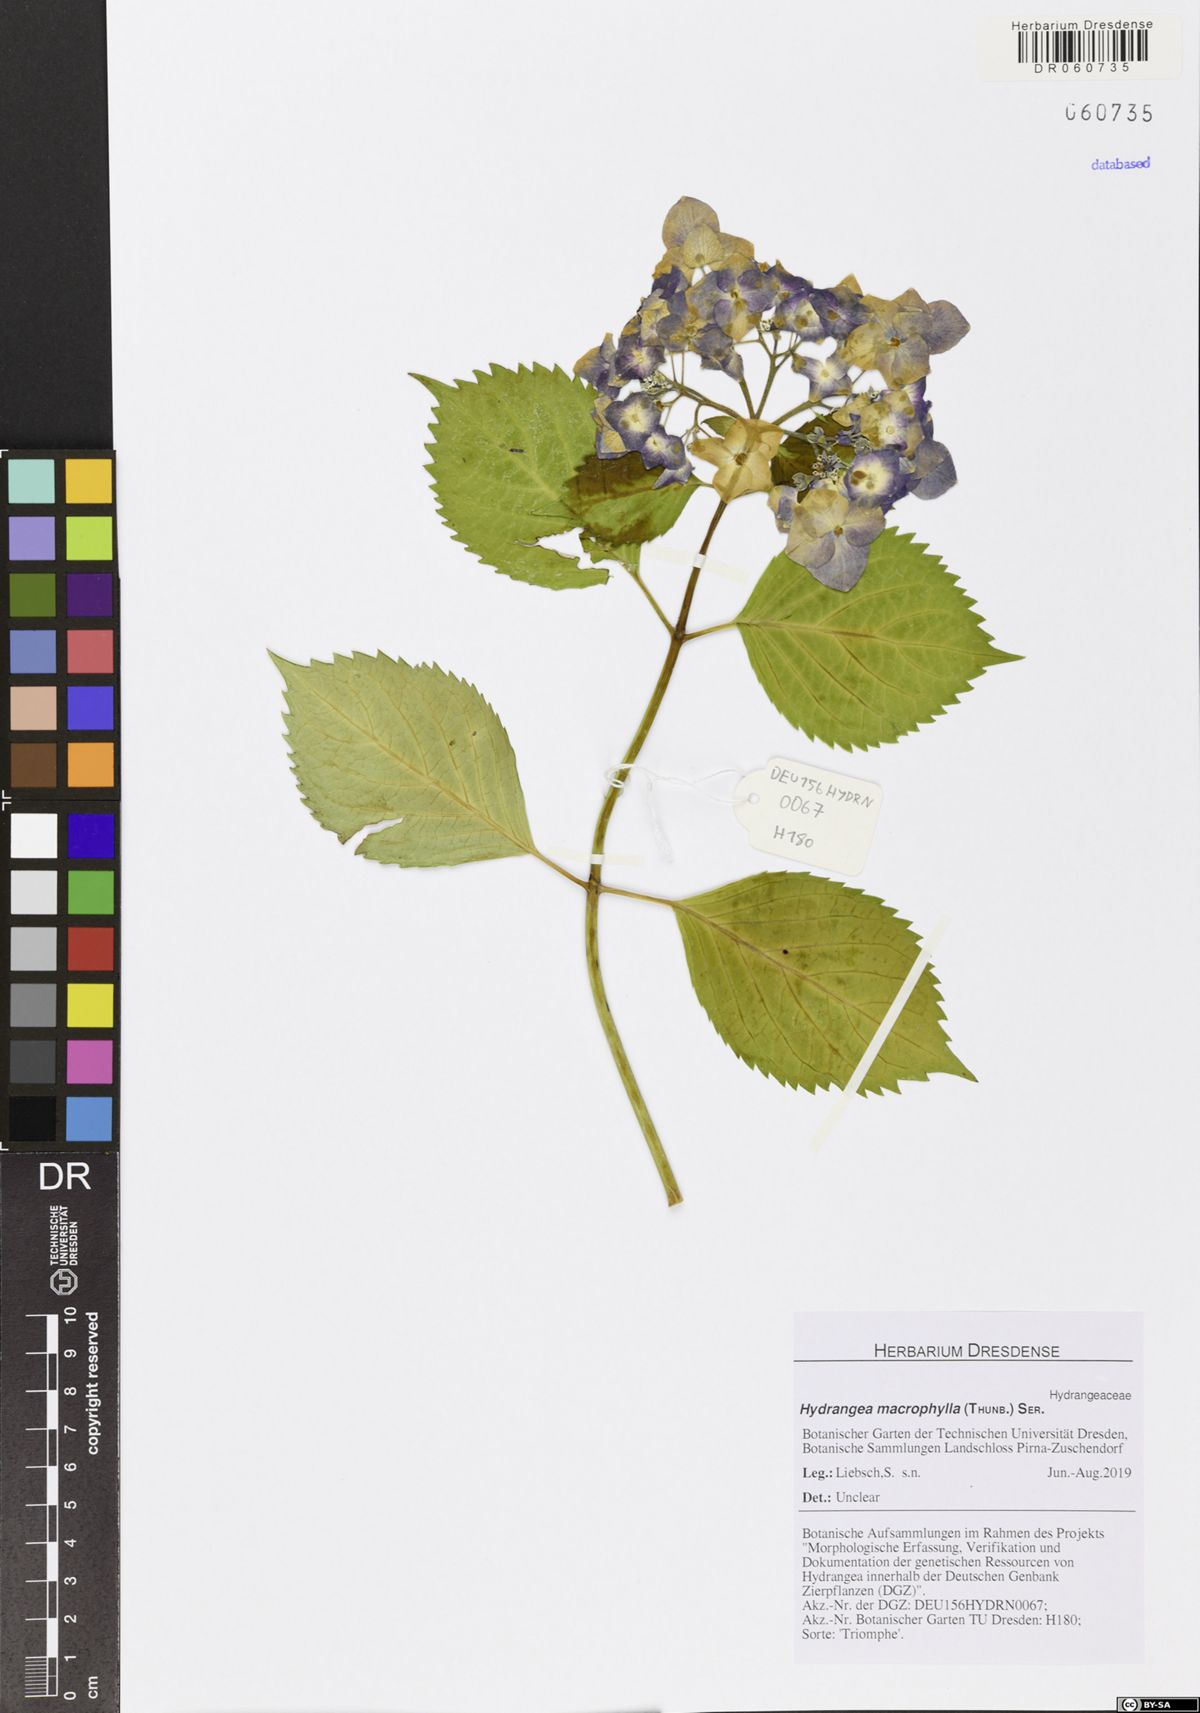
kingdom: Plantae
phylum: Tracheophyta
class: Magnoliopsida
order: Cornales
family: Hydrangeaceae
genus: Hydrangea
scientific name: Hydrangea macrophylla
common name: Hydrangea
